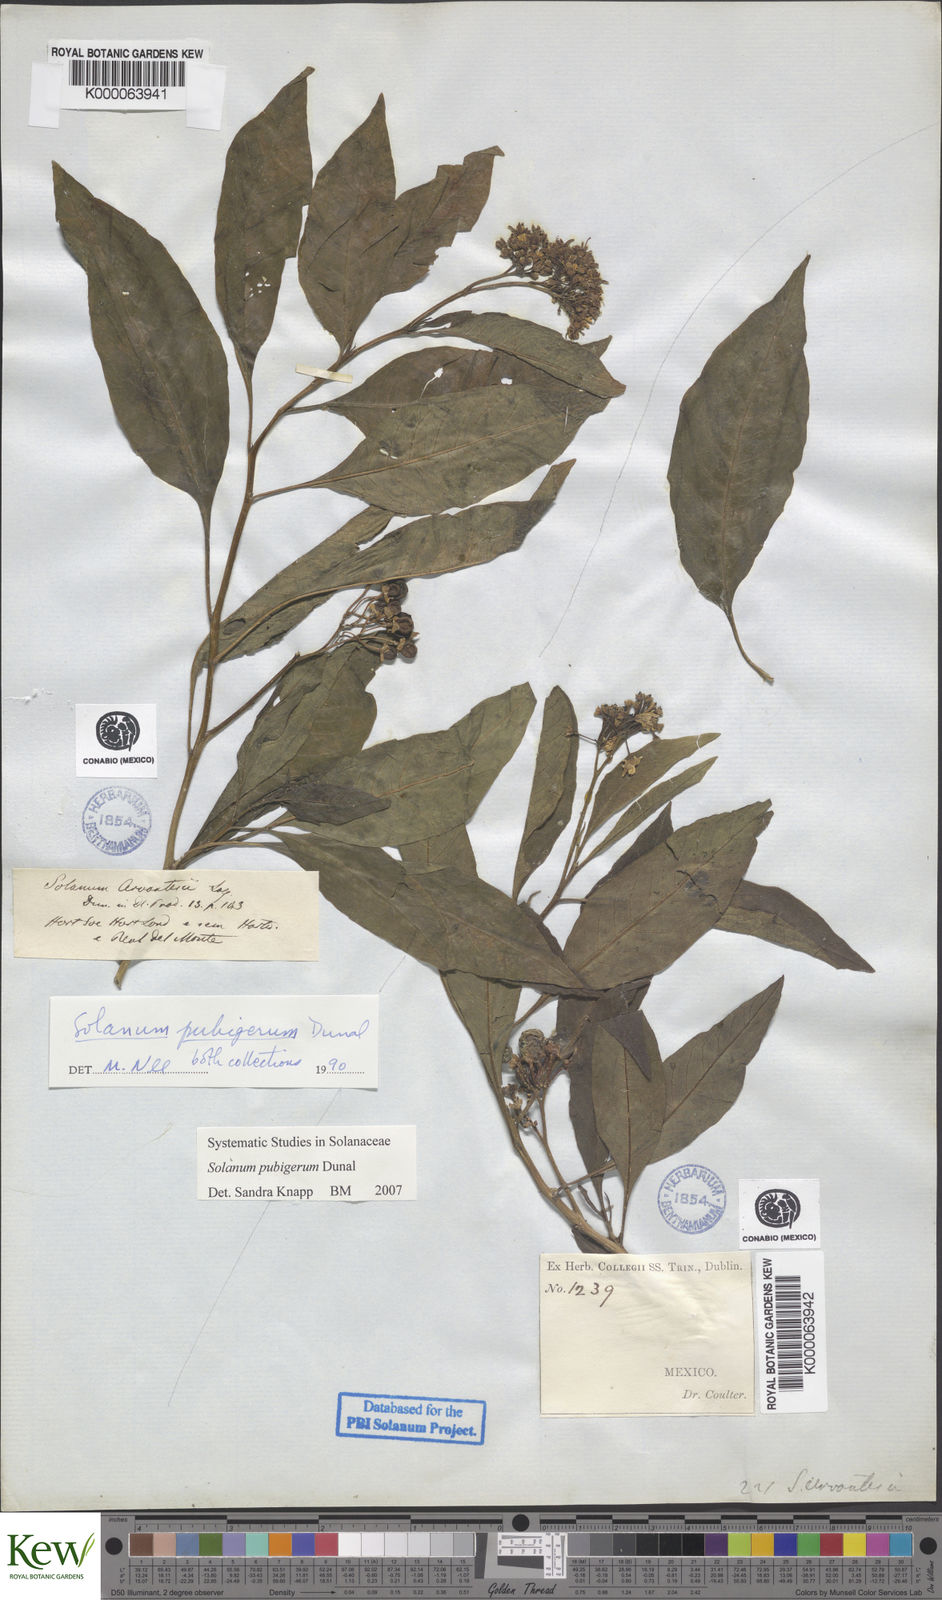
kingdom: Plantae
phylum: Tracheophyta
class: Magnoliopsida
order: Solanales
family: Solanaceae
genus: Solanum
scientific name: Solanum pubigerum
